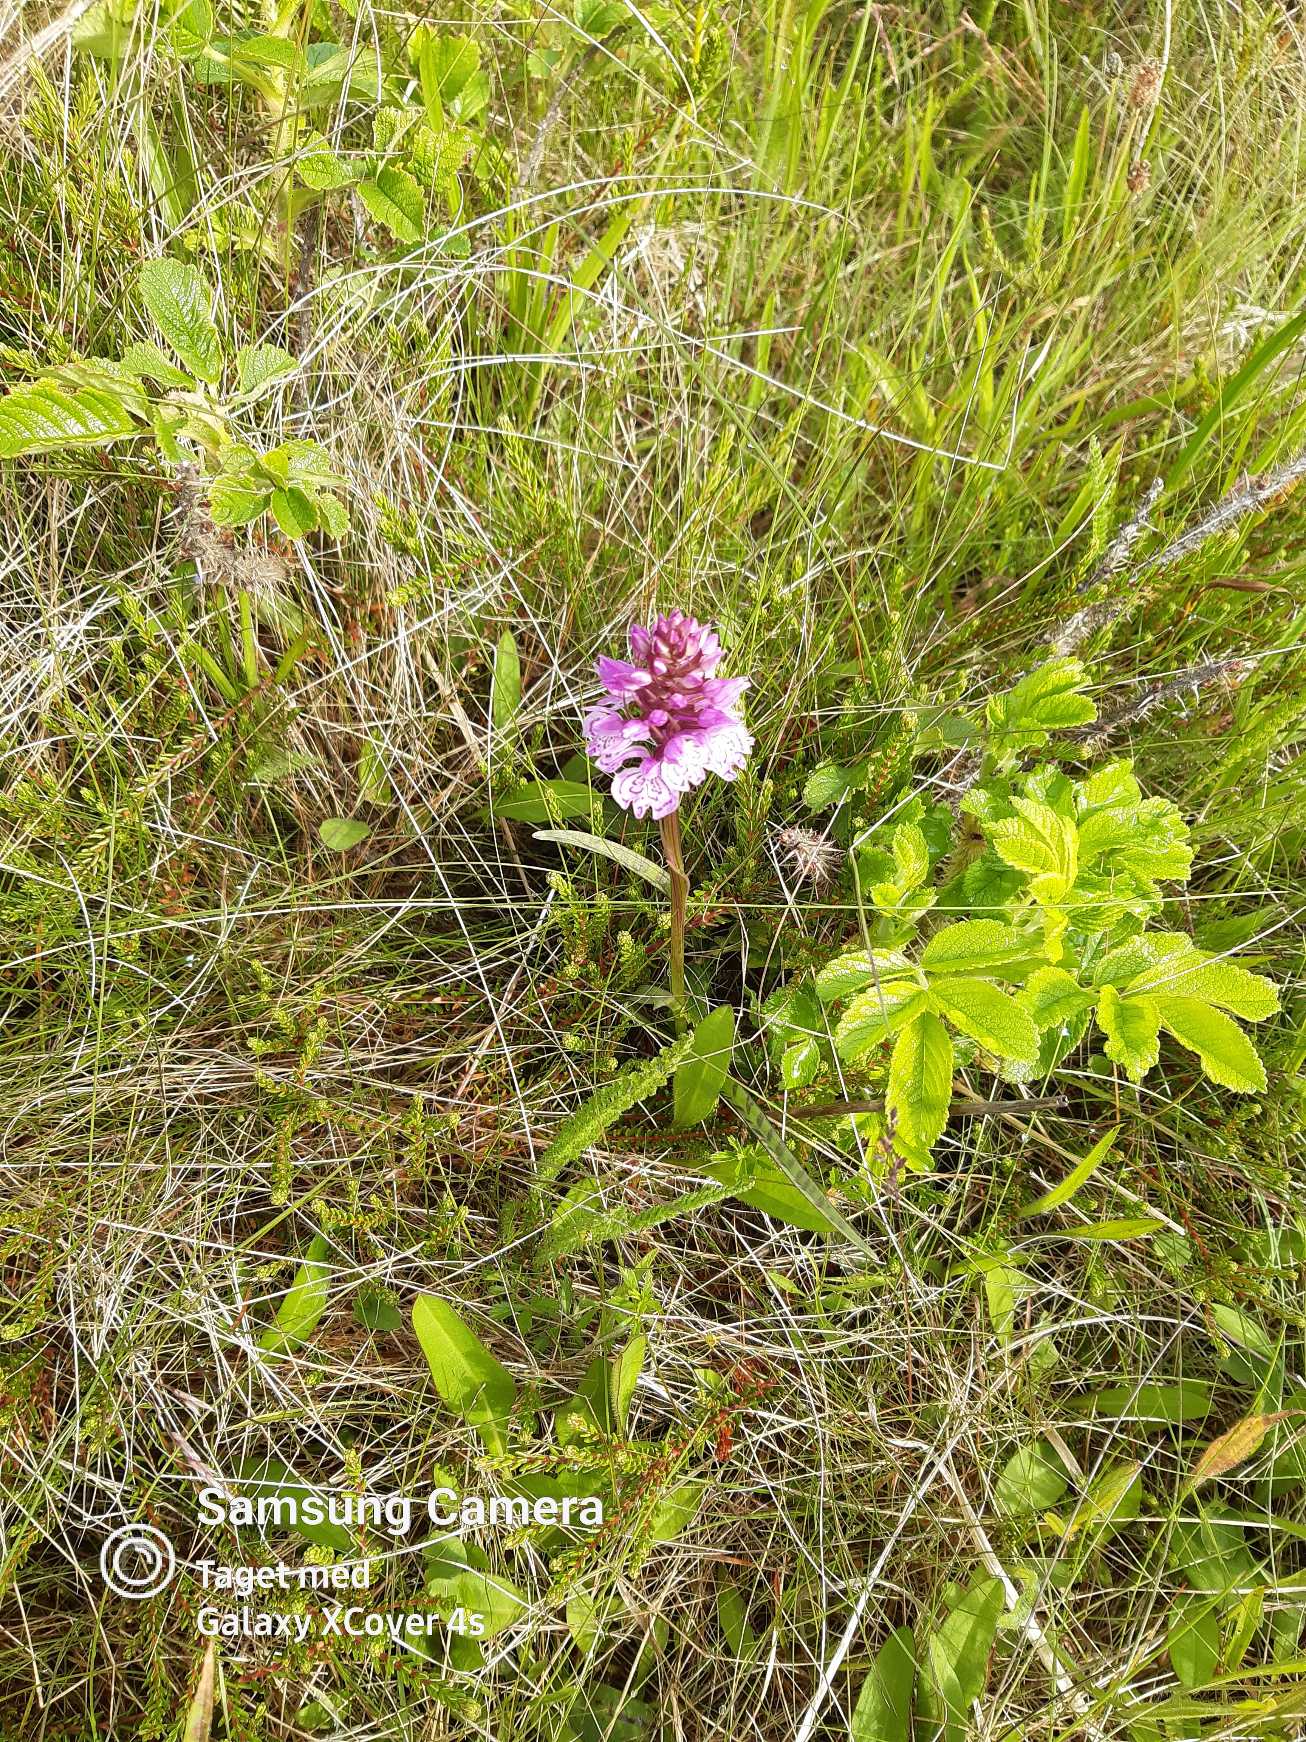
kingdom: Plantae
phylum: Tracheophyta
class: Liliopsida
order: Asparagales
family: Orchidaceae
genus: Dactylorhiza
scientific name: Dactylorhiza maculata
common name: Plettet gøgeurt
